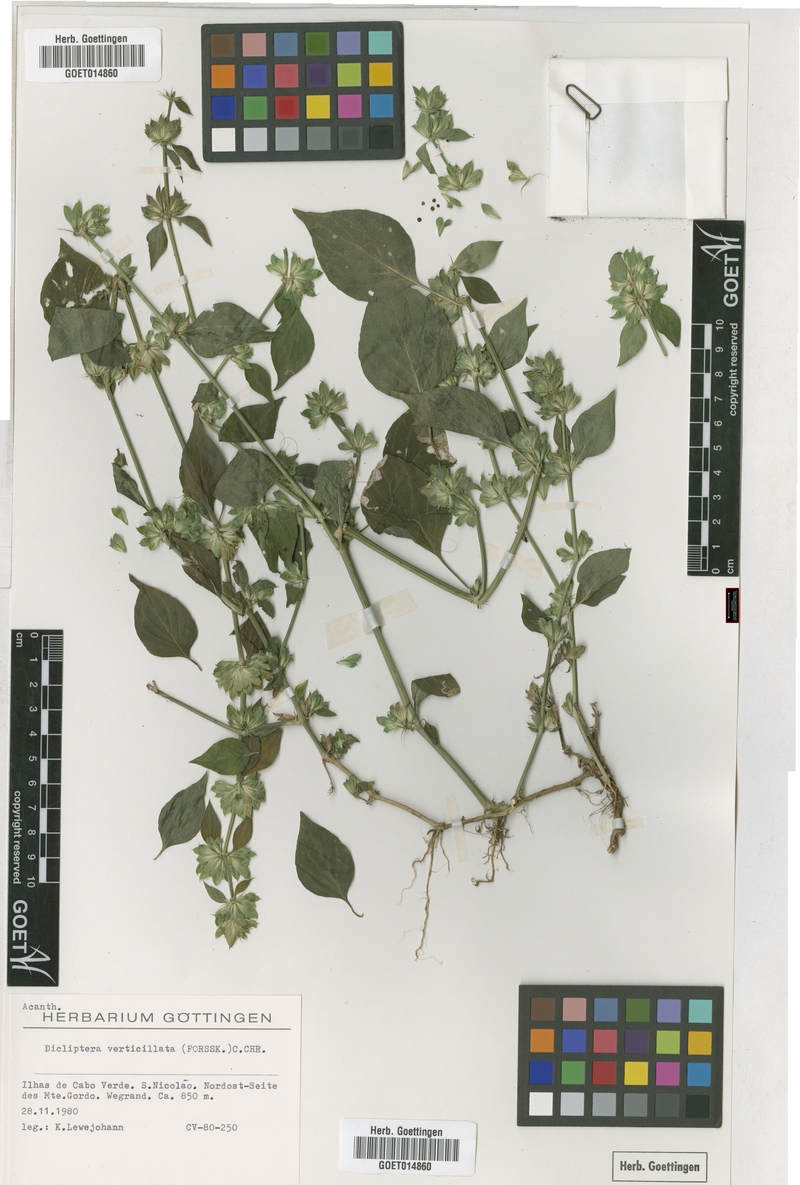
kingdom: Plantae
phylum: Tracheophyta
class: Magnoliopsida
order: Lamiales
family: Acanthaceae
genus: Dicliptera
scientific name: Dicliptera verticillata
